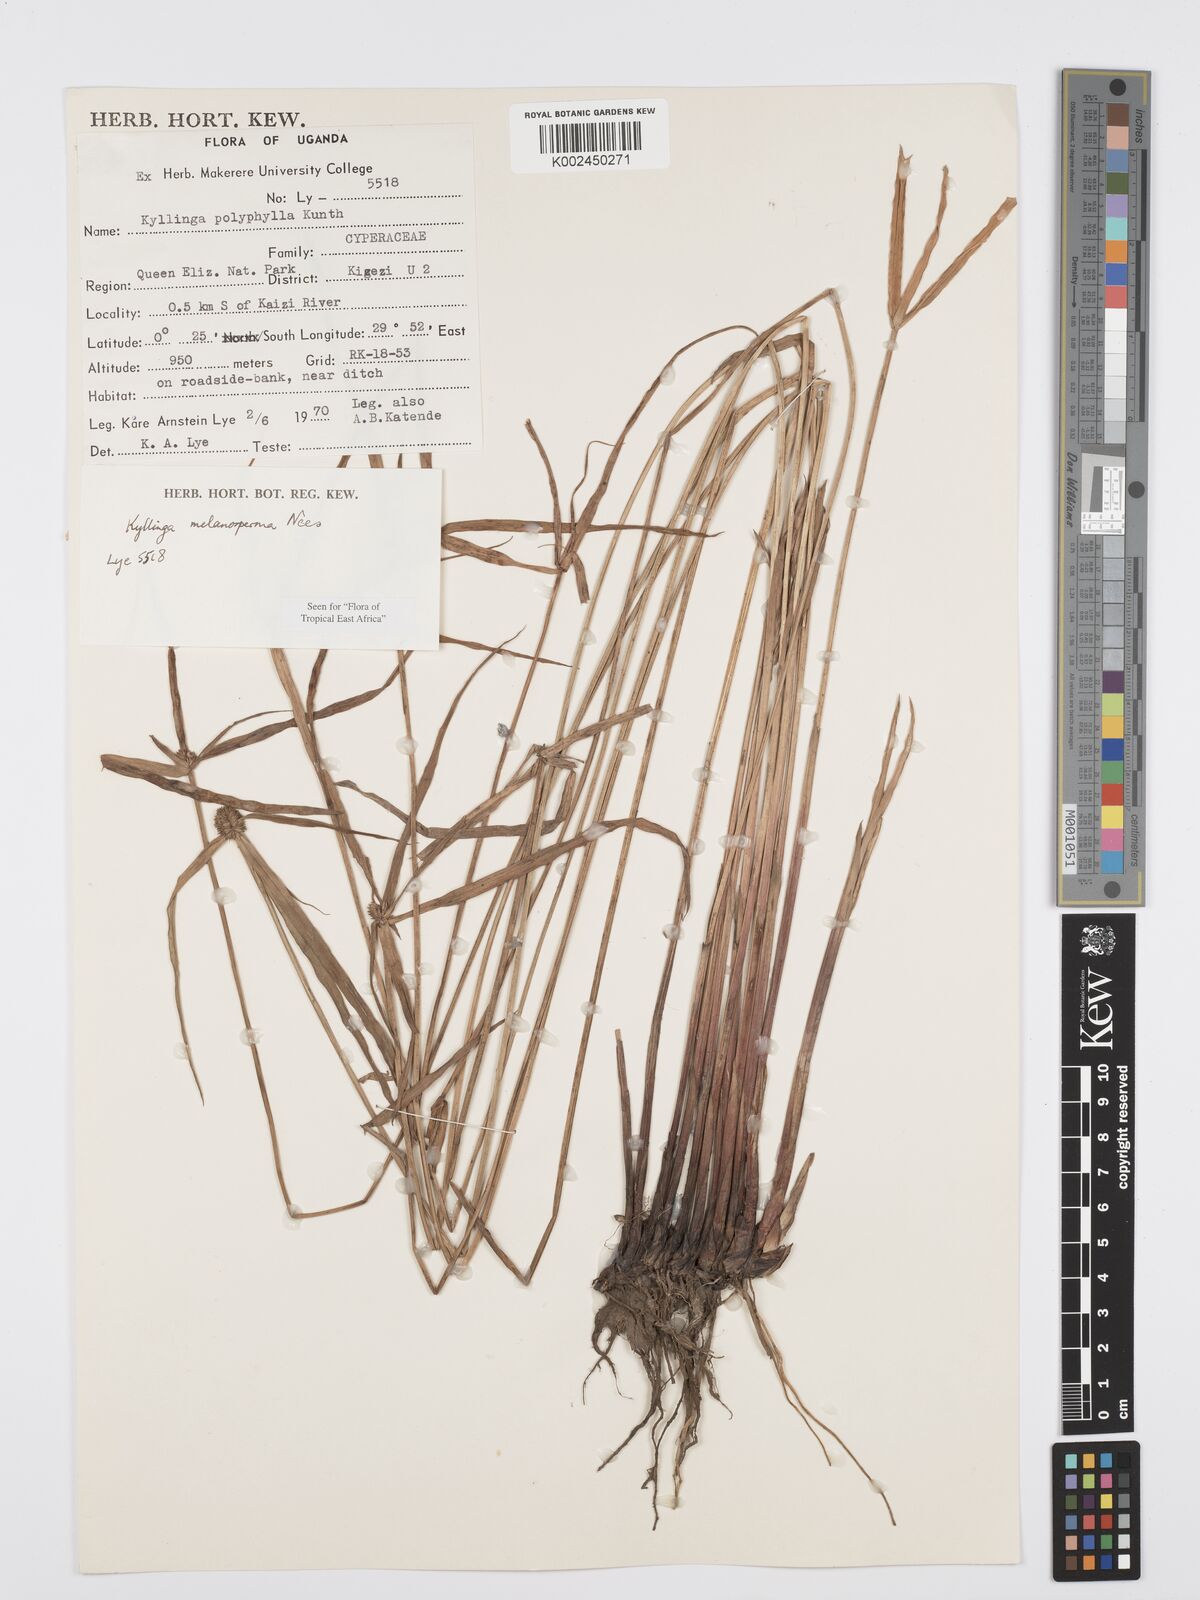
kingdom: Plantae
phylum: Tracheophyta
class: Liliopsida
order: Poales
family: Cyperaceae
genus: Cyperus
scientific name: Cyperus
